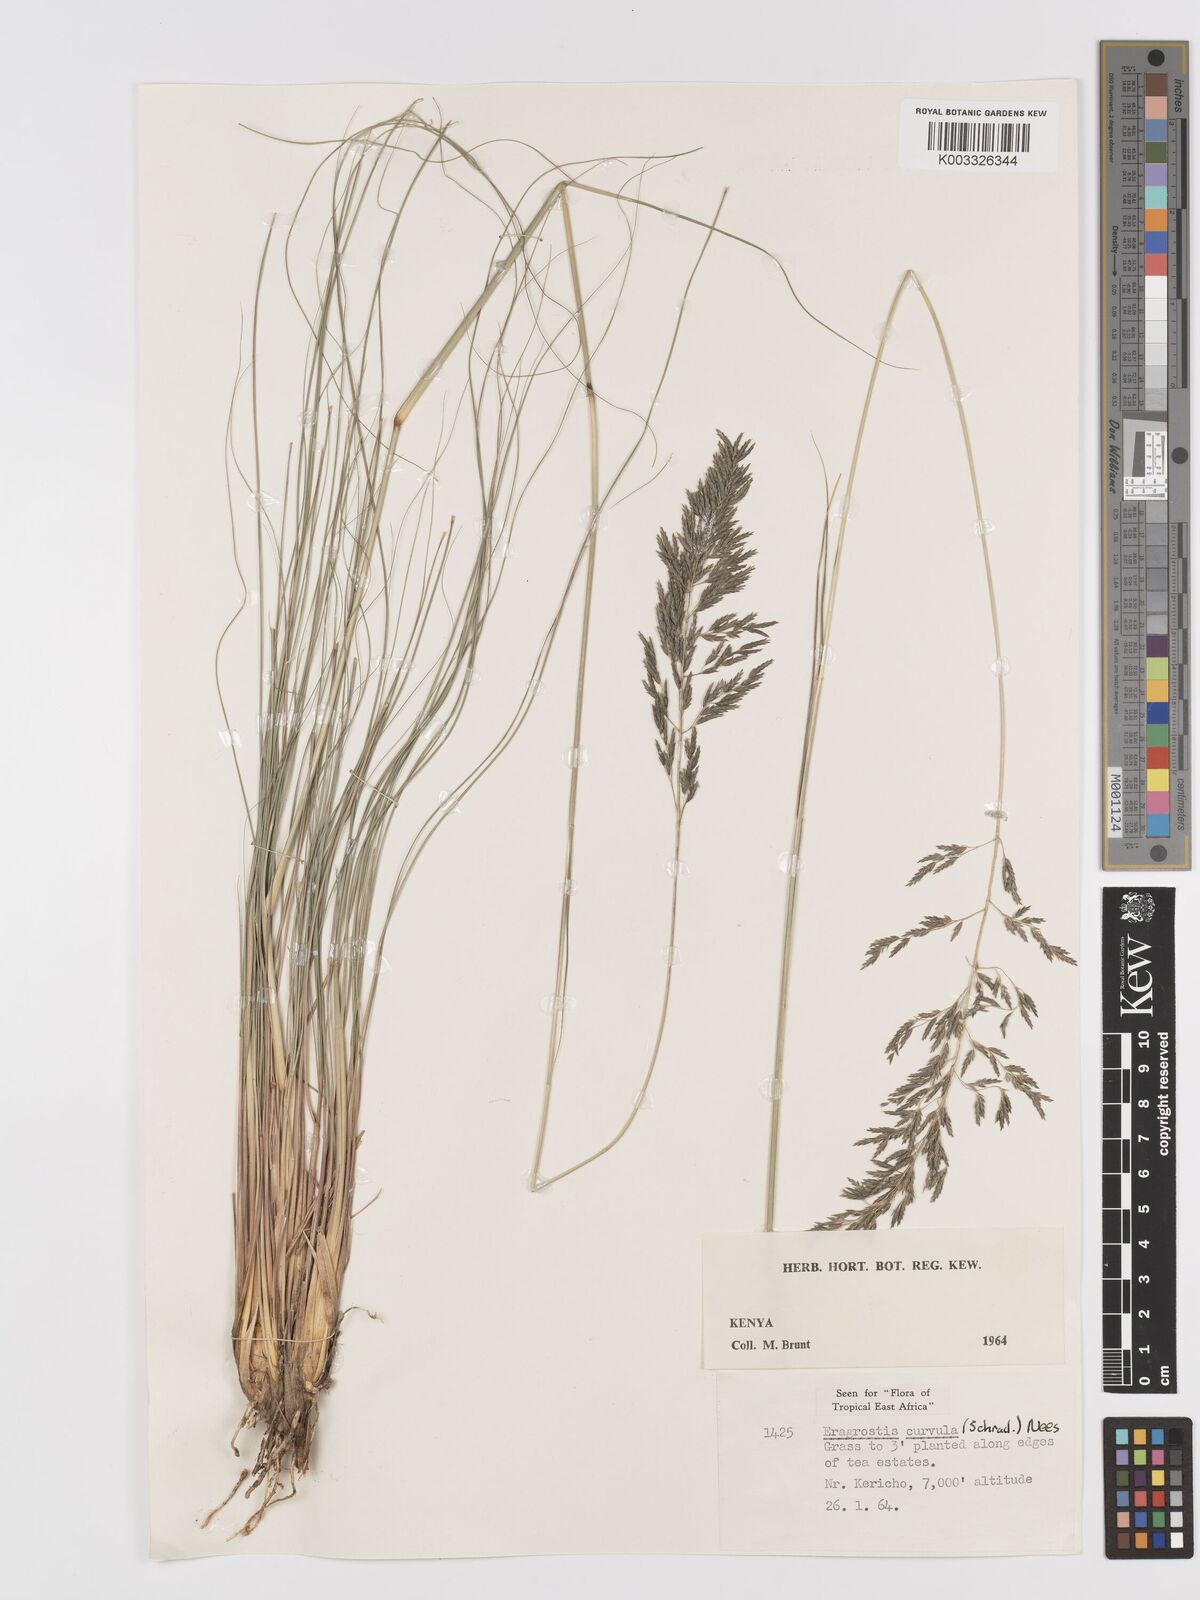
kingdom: Plantae
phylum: Tracheophyta
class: Liliopsida
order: Poales
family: Poaceae
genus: Eragrostis
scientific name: Eragrostis curvula
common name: African love-grass
